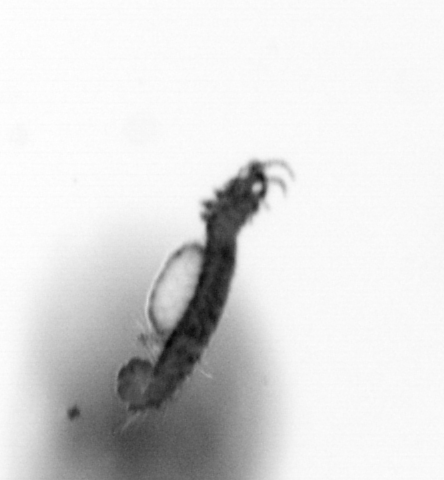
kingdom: Animalia
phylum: Annelida
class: Polychaeta
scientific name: Polychaeta
